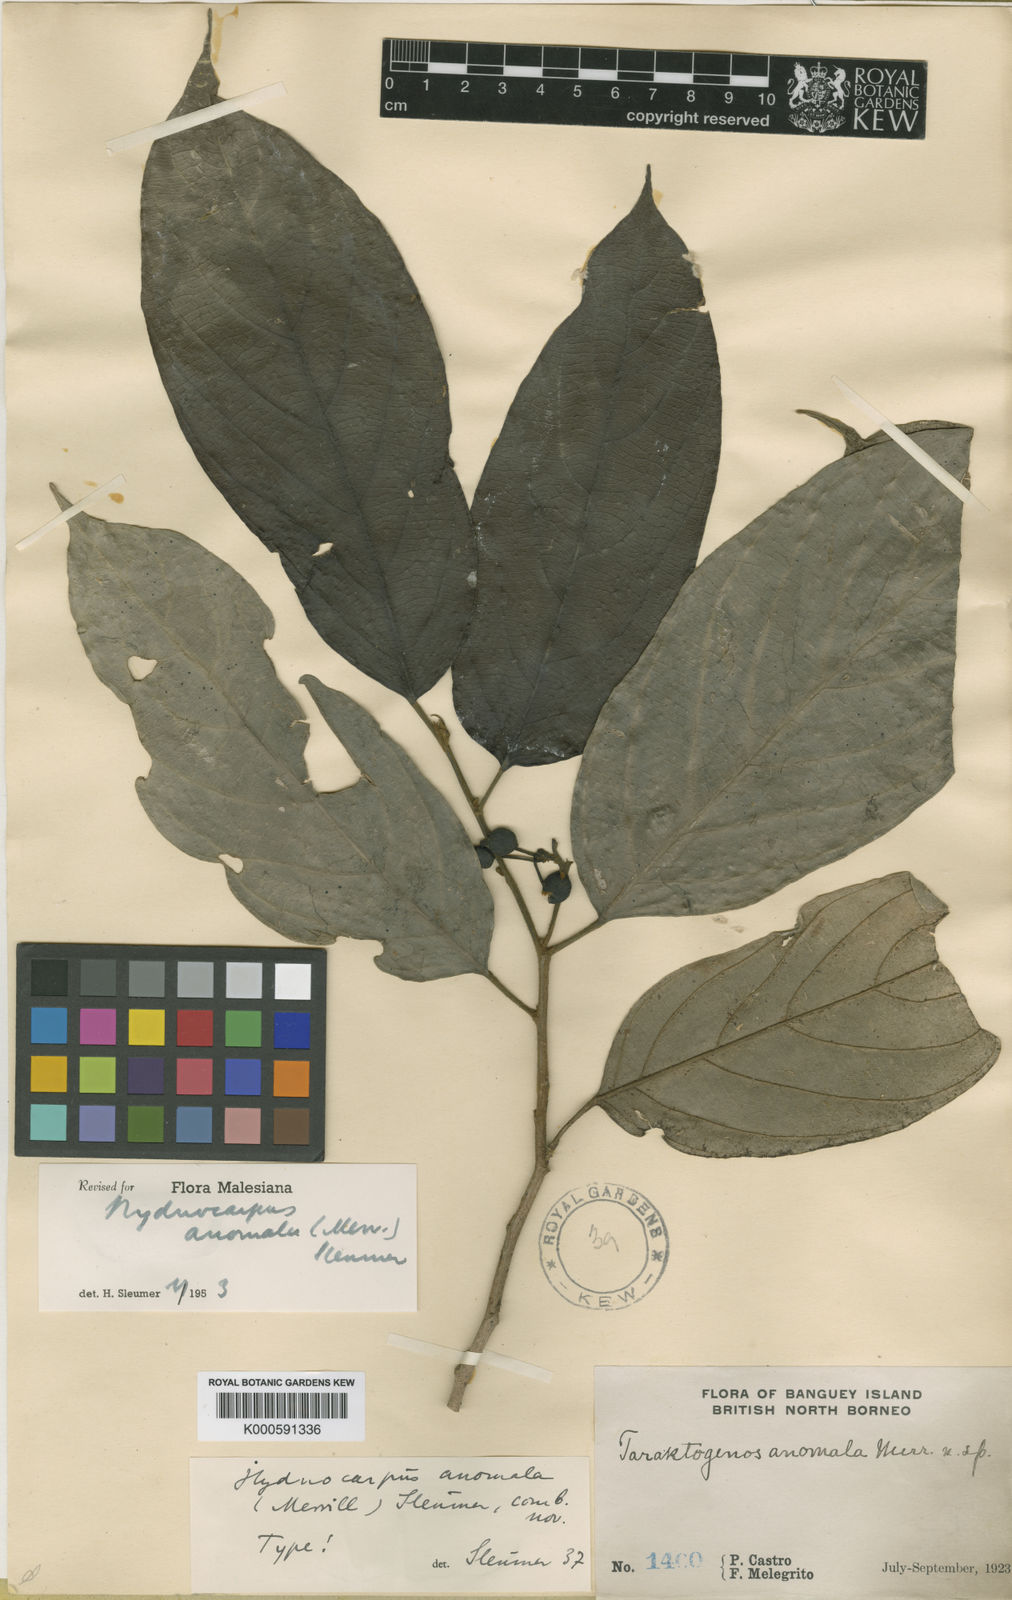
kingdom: Plantae
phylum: Tracheophyta
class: Magnoliopsida
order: Malpighiales
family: Achariaceae
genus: Hydnocarpus
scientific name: Hydnocarpus anomalus
